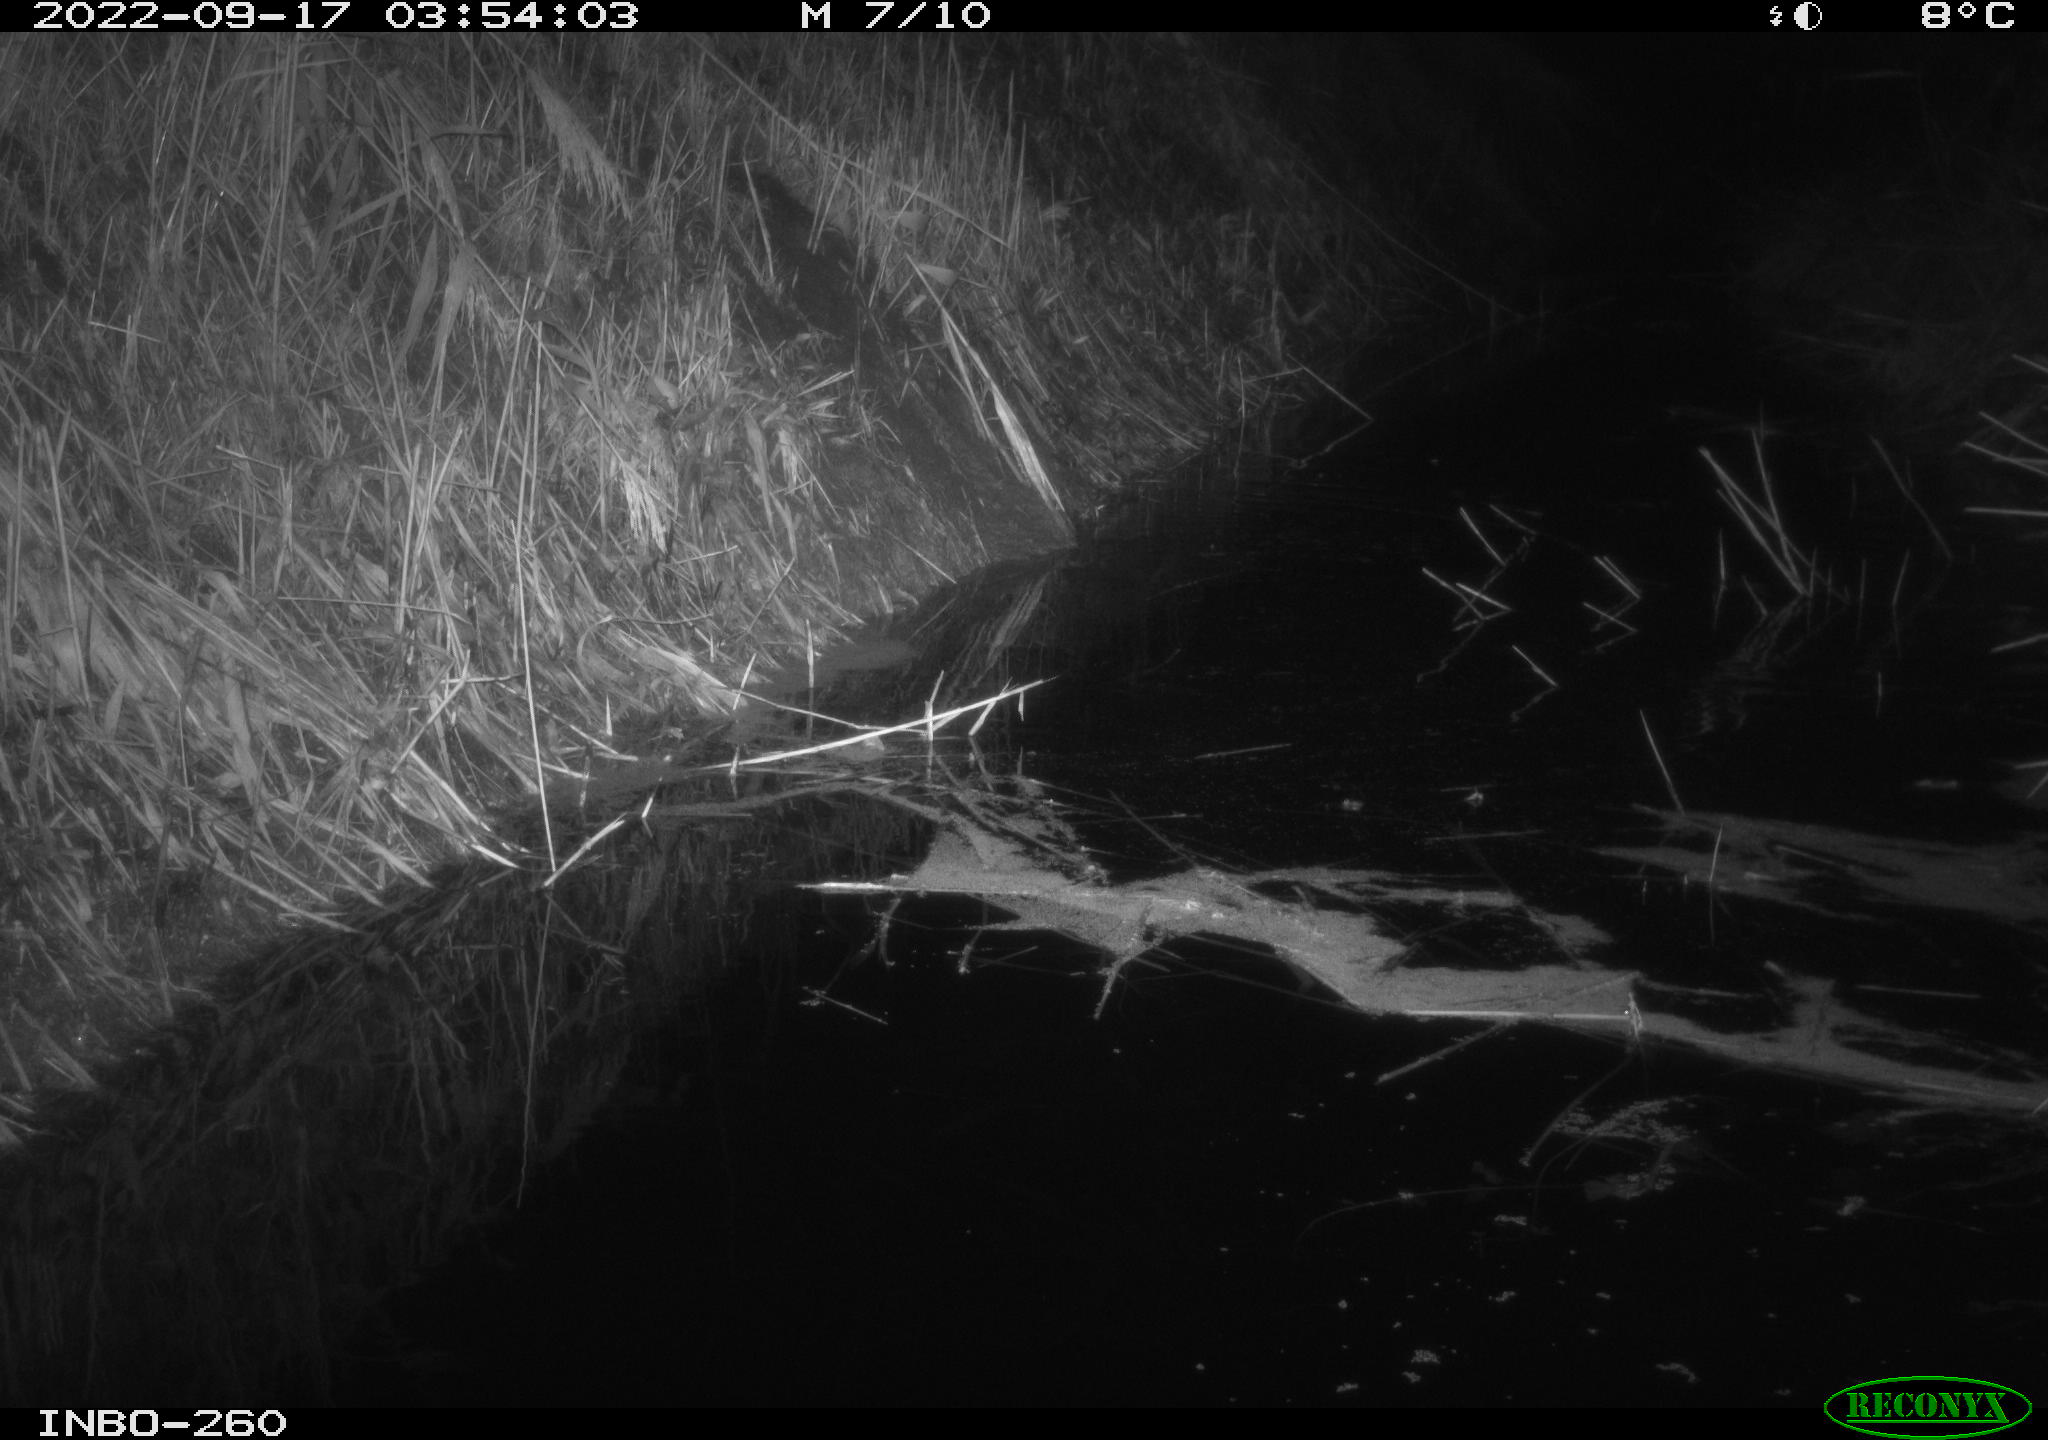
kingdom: Animalia
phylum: Chordata
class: Mammalia
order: Rodentia
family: Muridae
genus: Rattus
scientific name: Rattus norvegicus
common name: Brown rat
